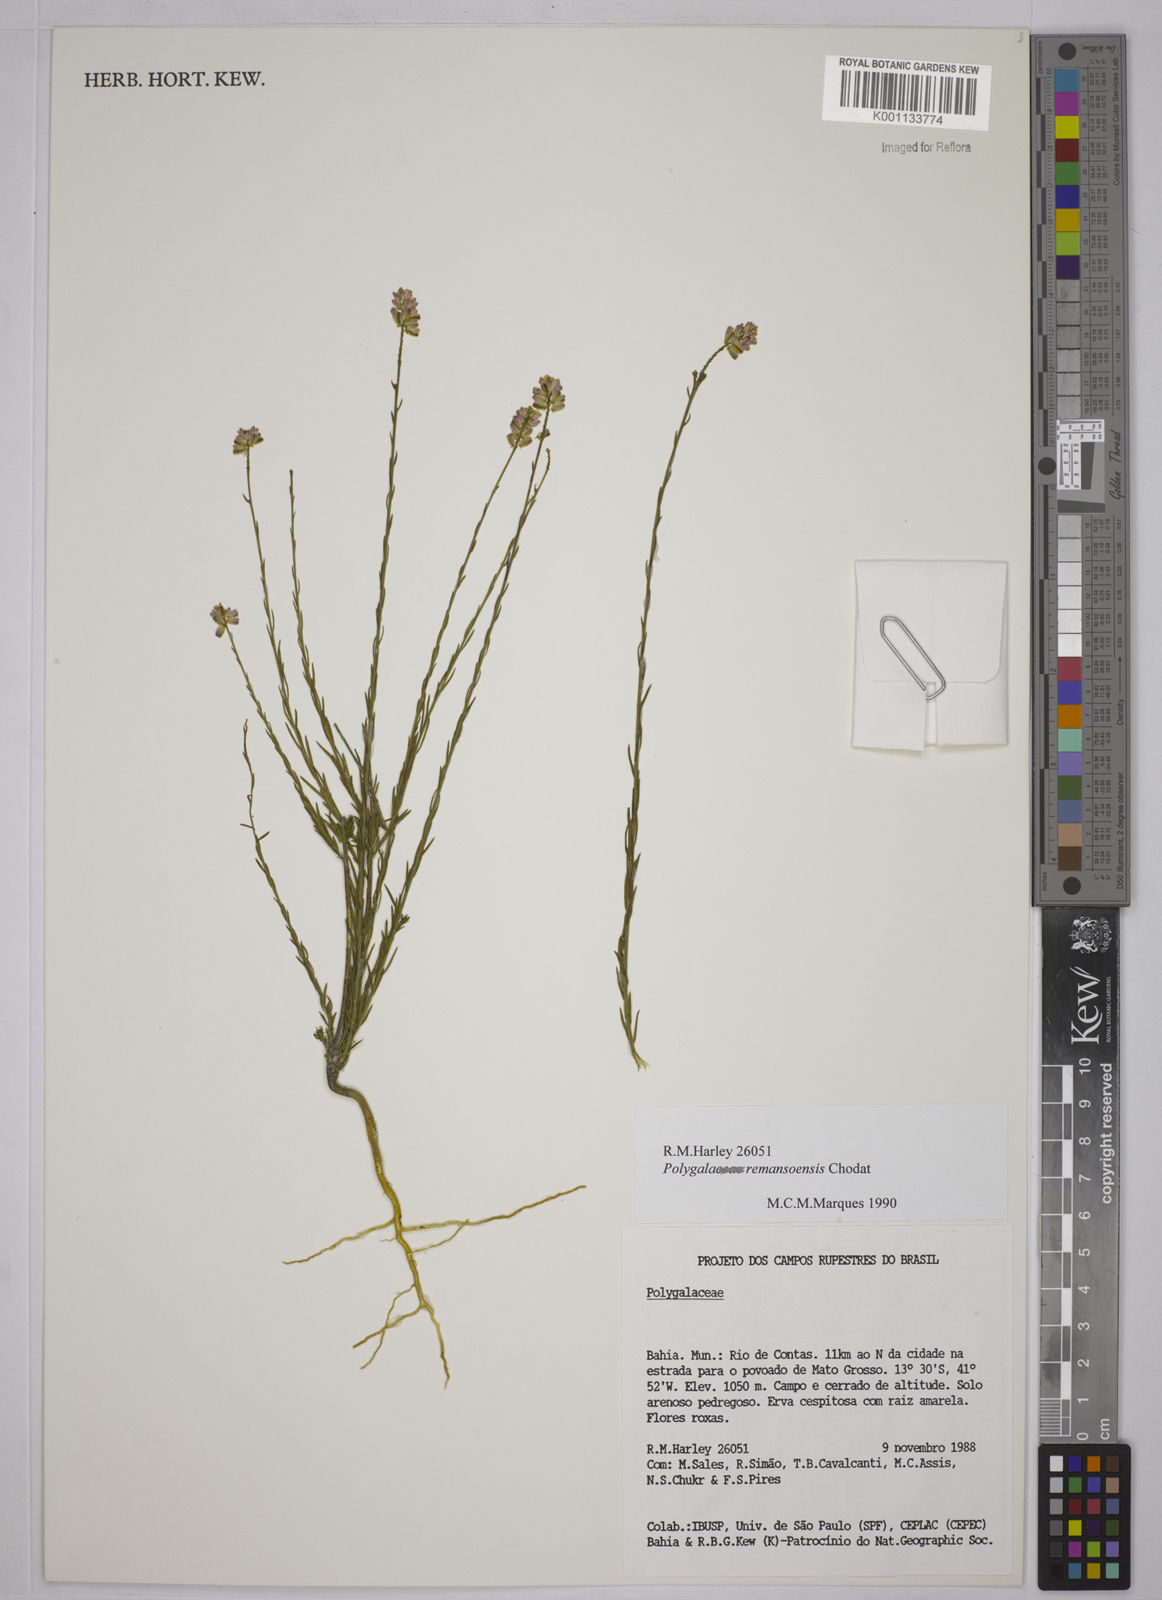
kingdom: Plantae
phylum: Tracheophyta
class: Magnoliopsida
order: Fabales
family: Polygalaceae
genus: Polygala
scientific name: Polygala trichosperma
